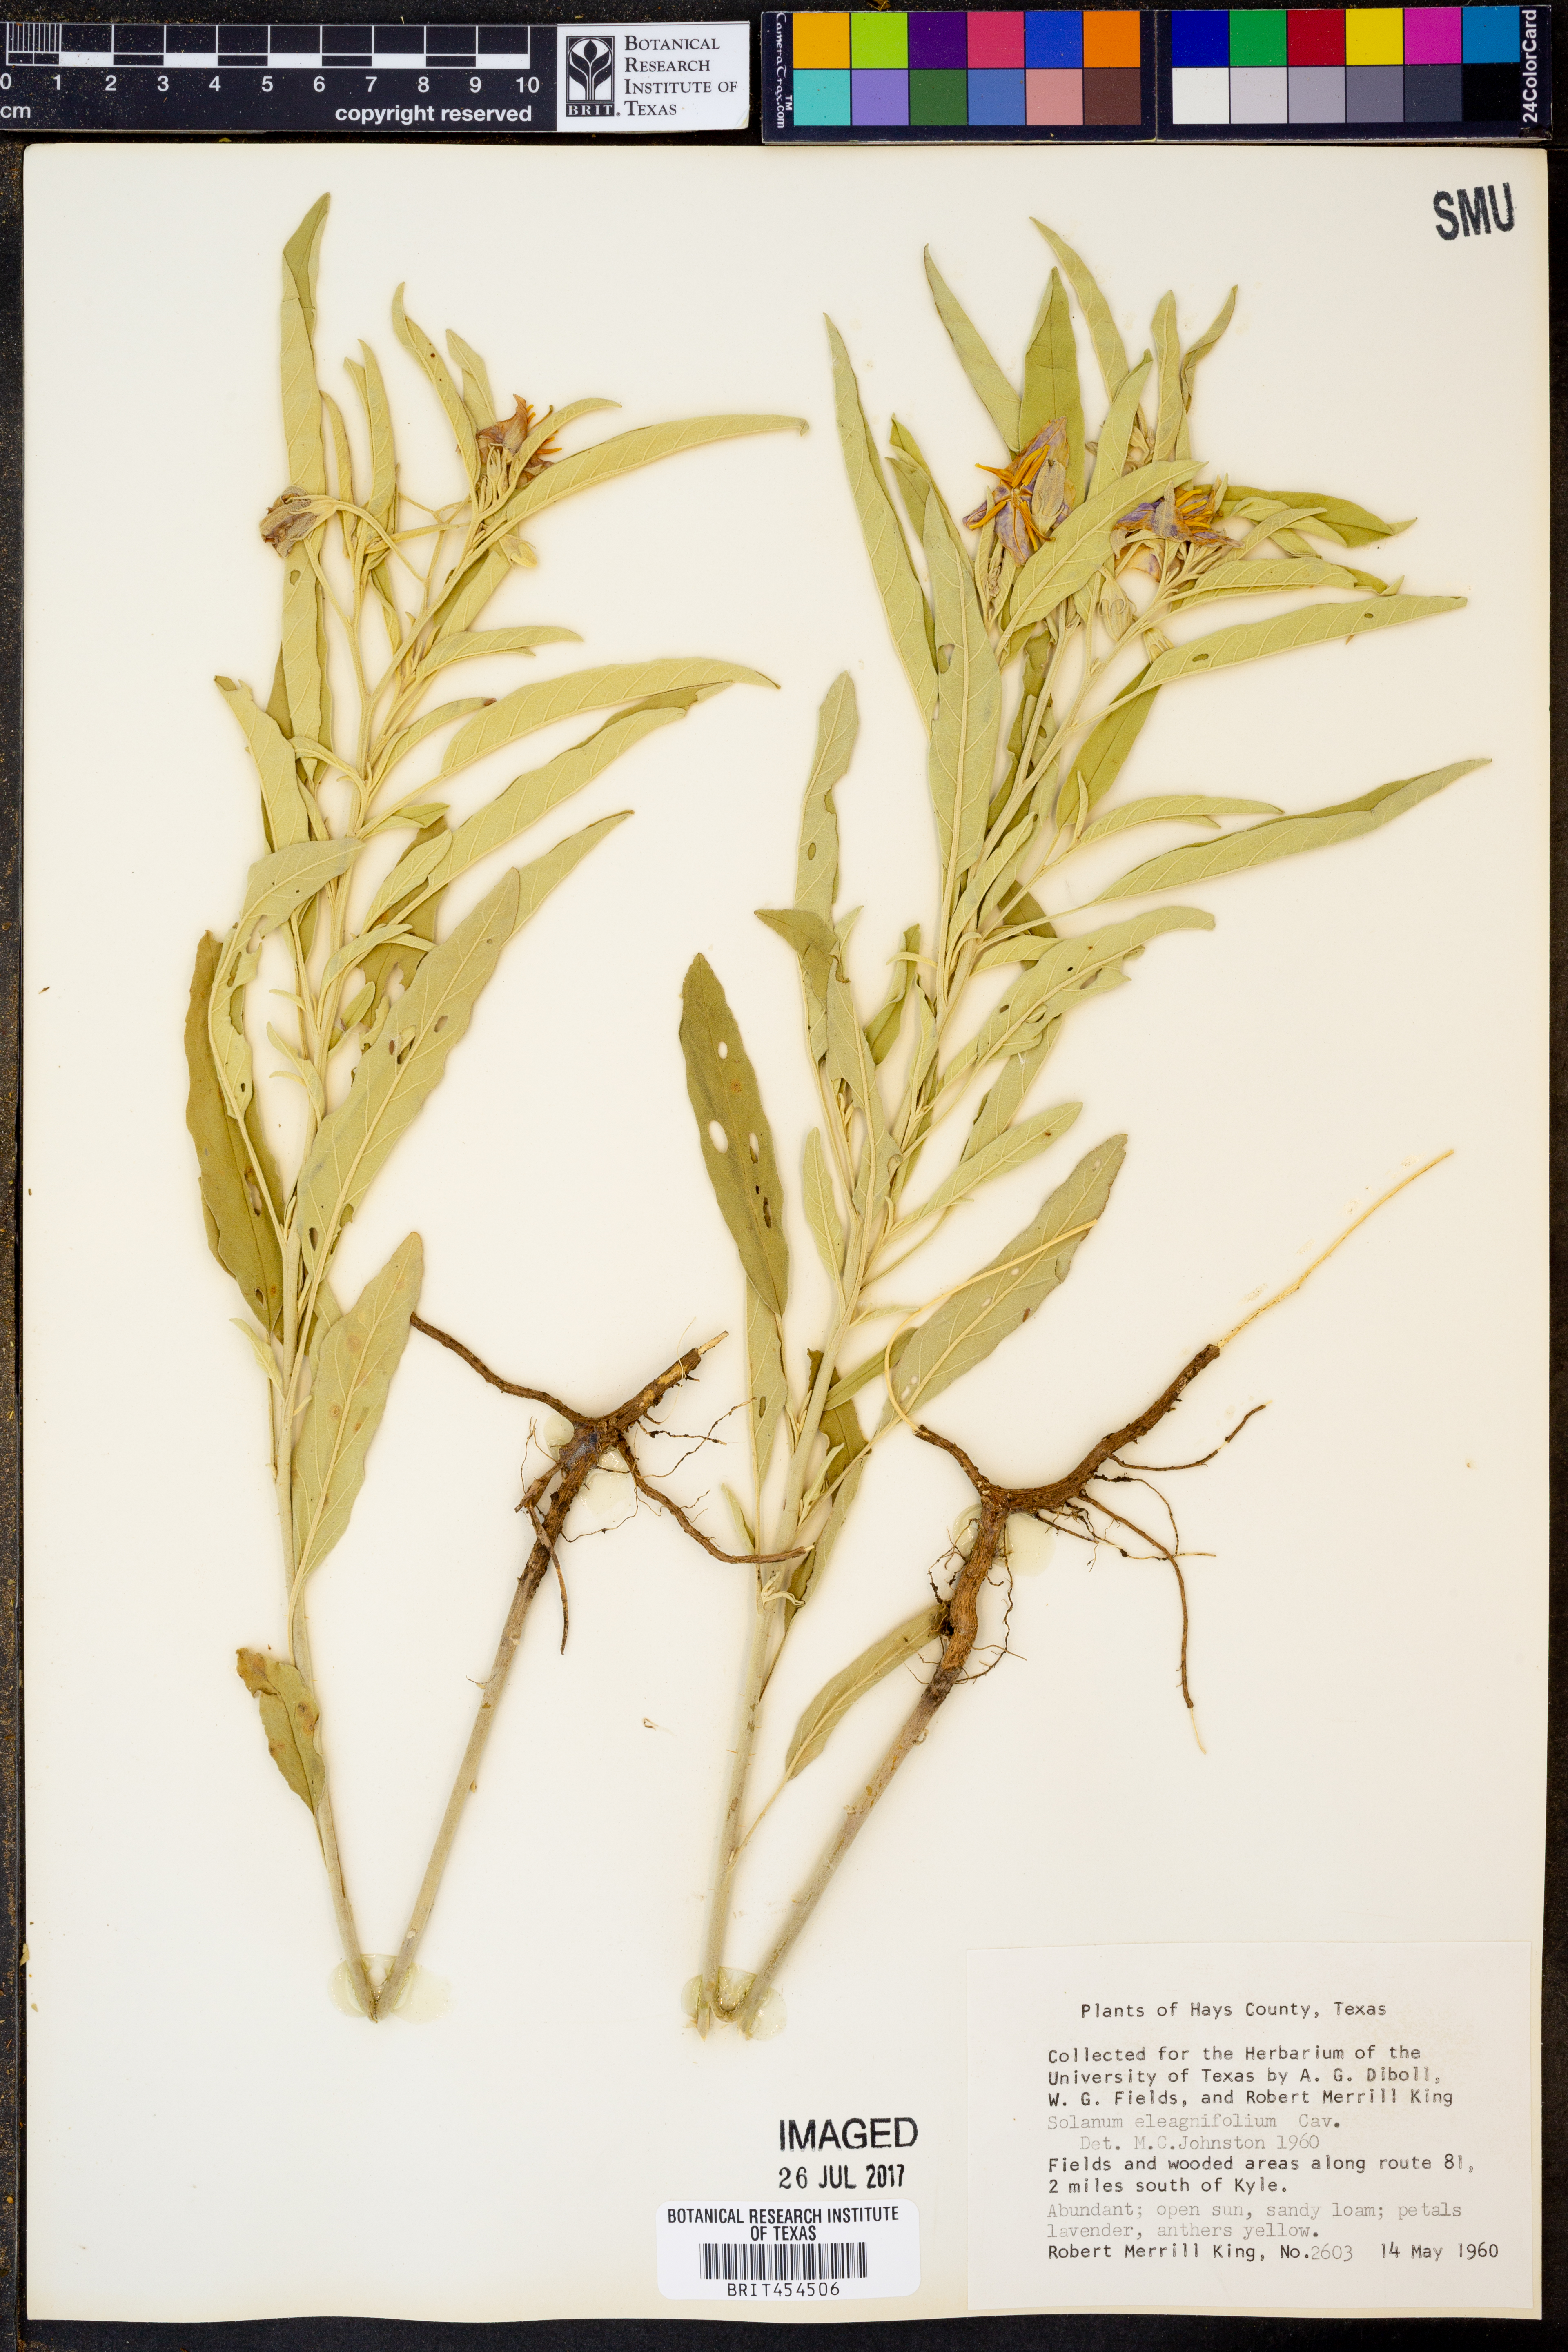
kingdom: Plantae
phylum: Tracheophyta
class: Magnoliopsida
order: Solanales
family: Solanaceae
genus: Solanum
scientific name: Solanum elaeagnifolium
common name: Silverleaf nightshade
